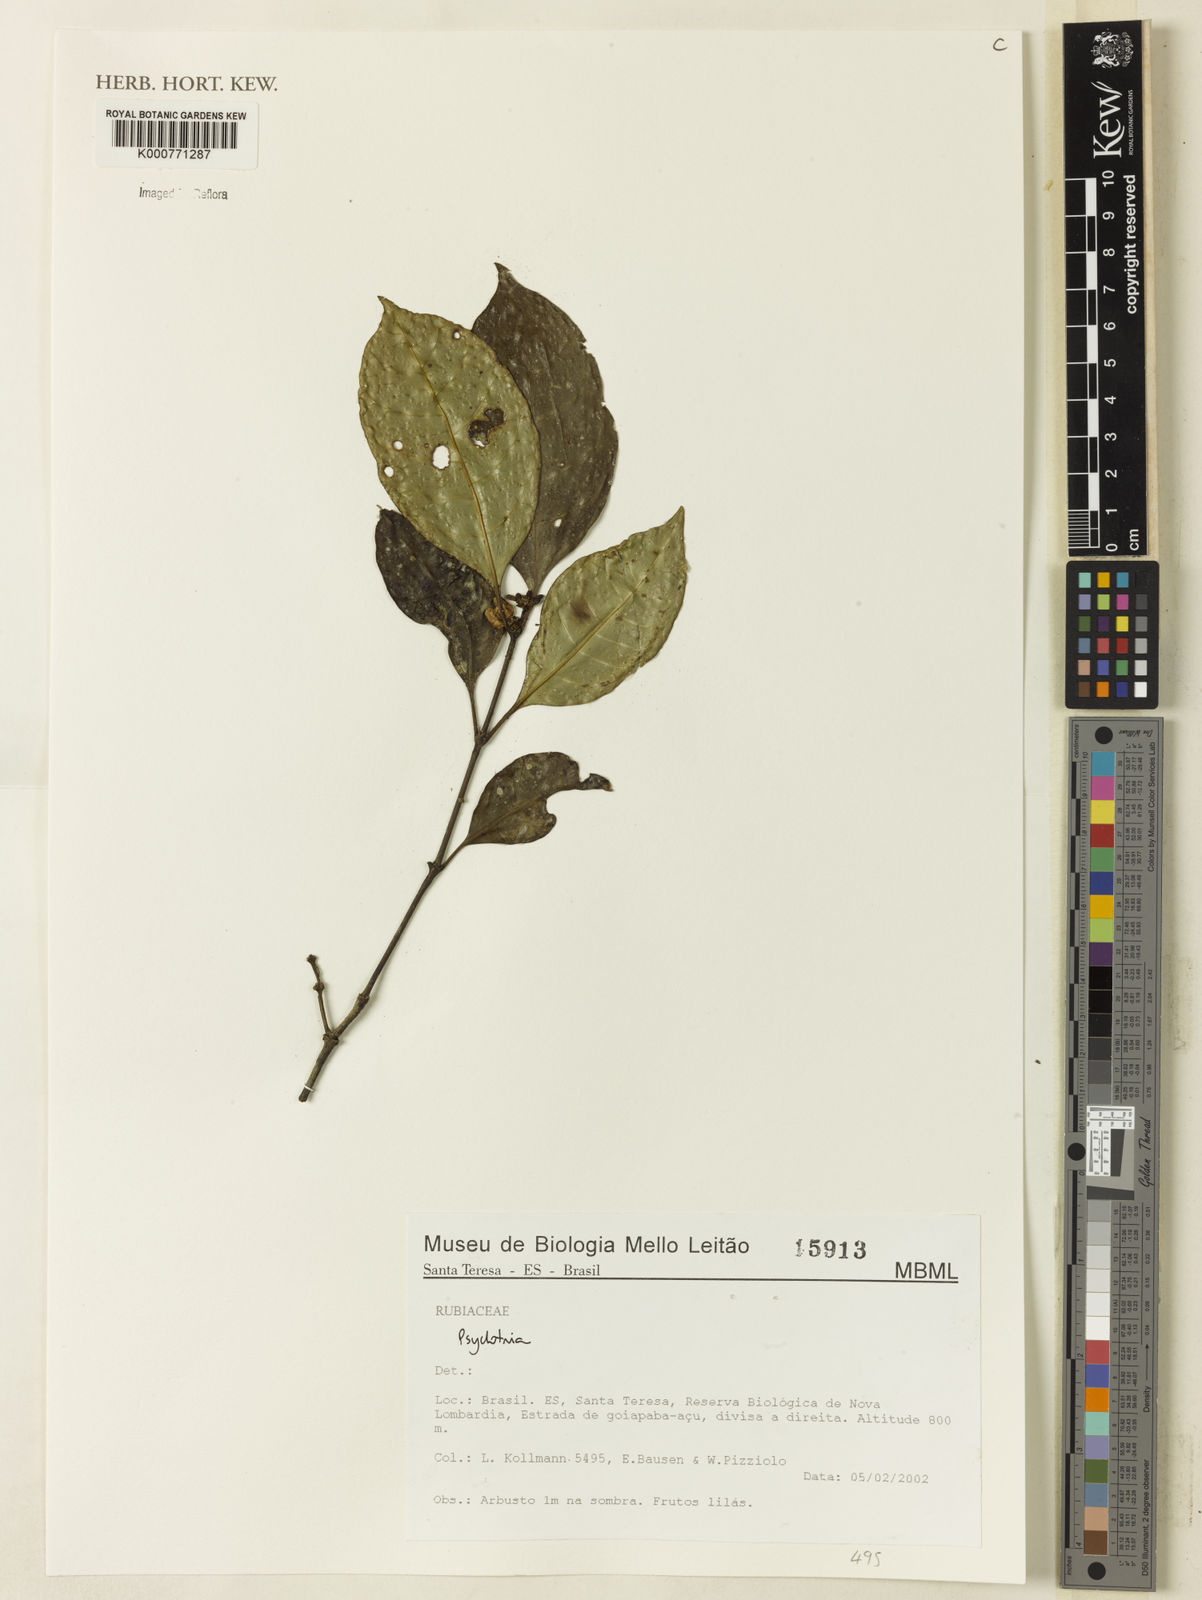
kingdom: Plantae
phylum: Tracheophyta
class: Magnoliopsida
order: Gentianales
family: Rubiaceae
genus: Rudgea
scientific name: Rudgea
